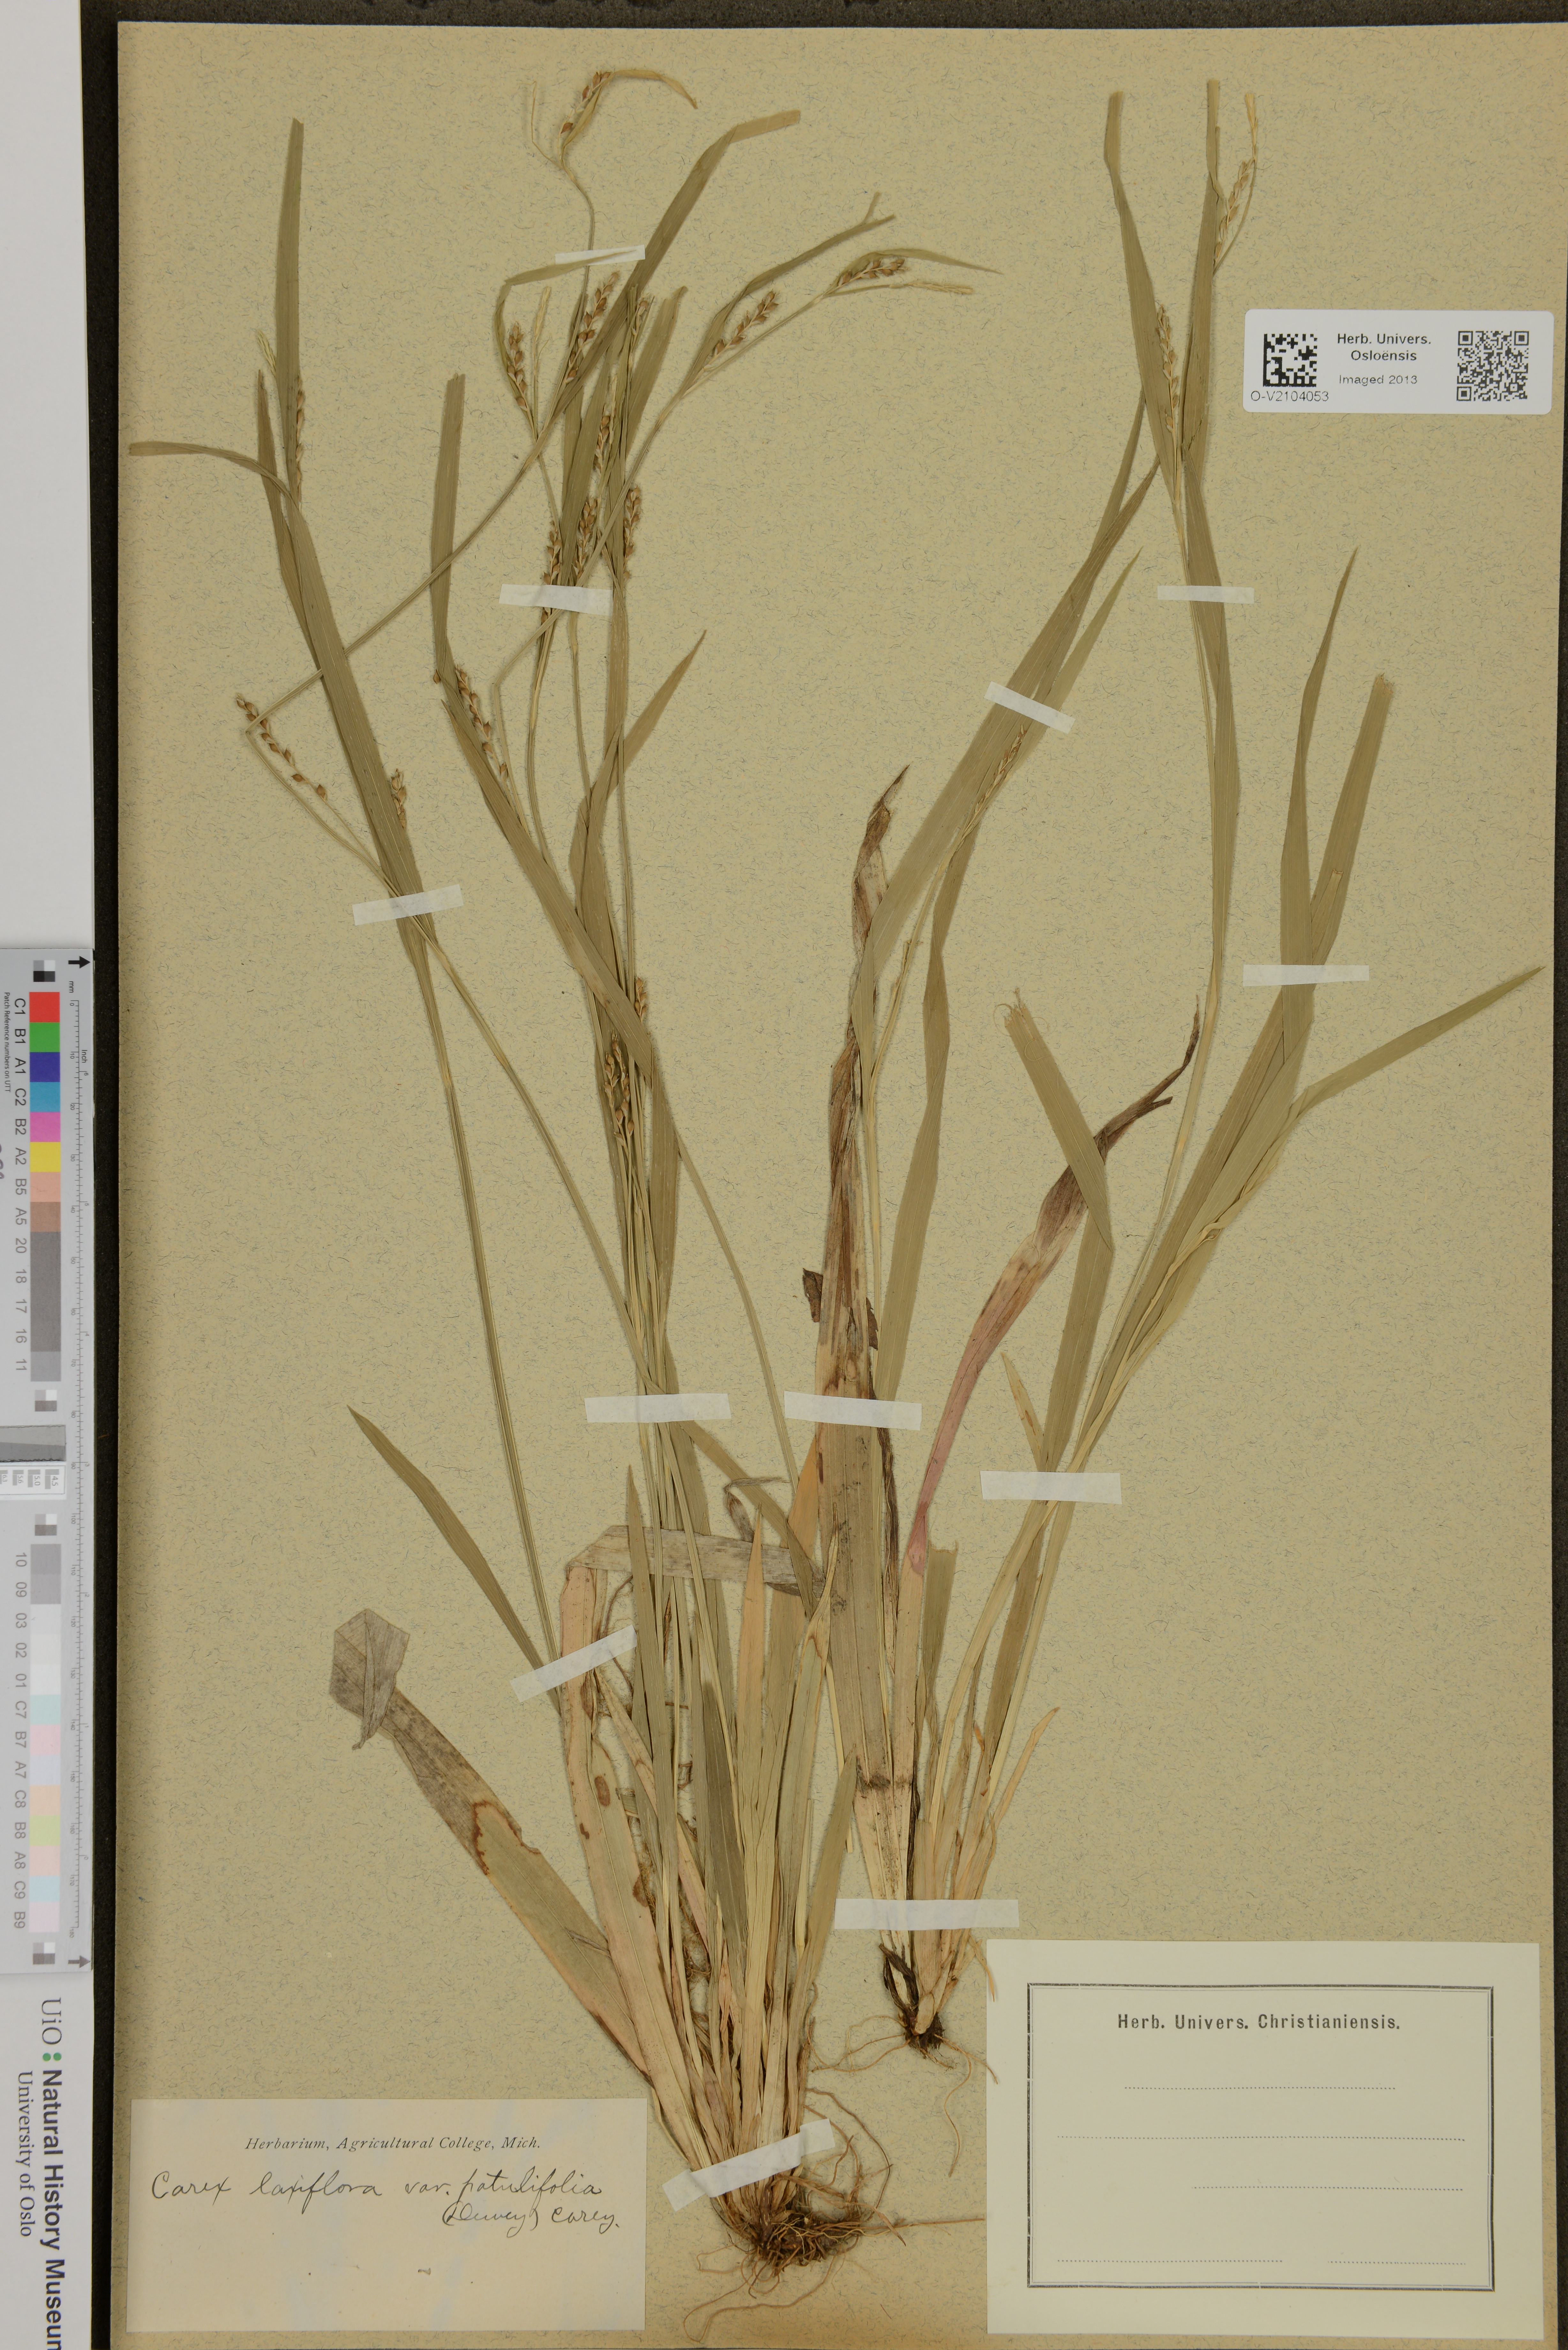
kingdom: Plantae
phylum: Tracheophyta
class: Liliopsida
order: Poales
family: Cyperaceae
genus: Carex
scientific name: Carex laxiflora
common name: Beech wood sedge
